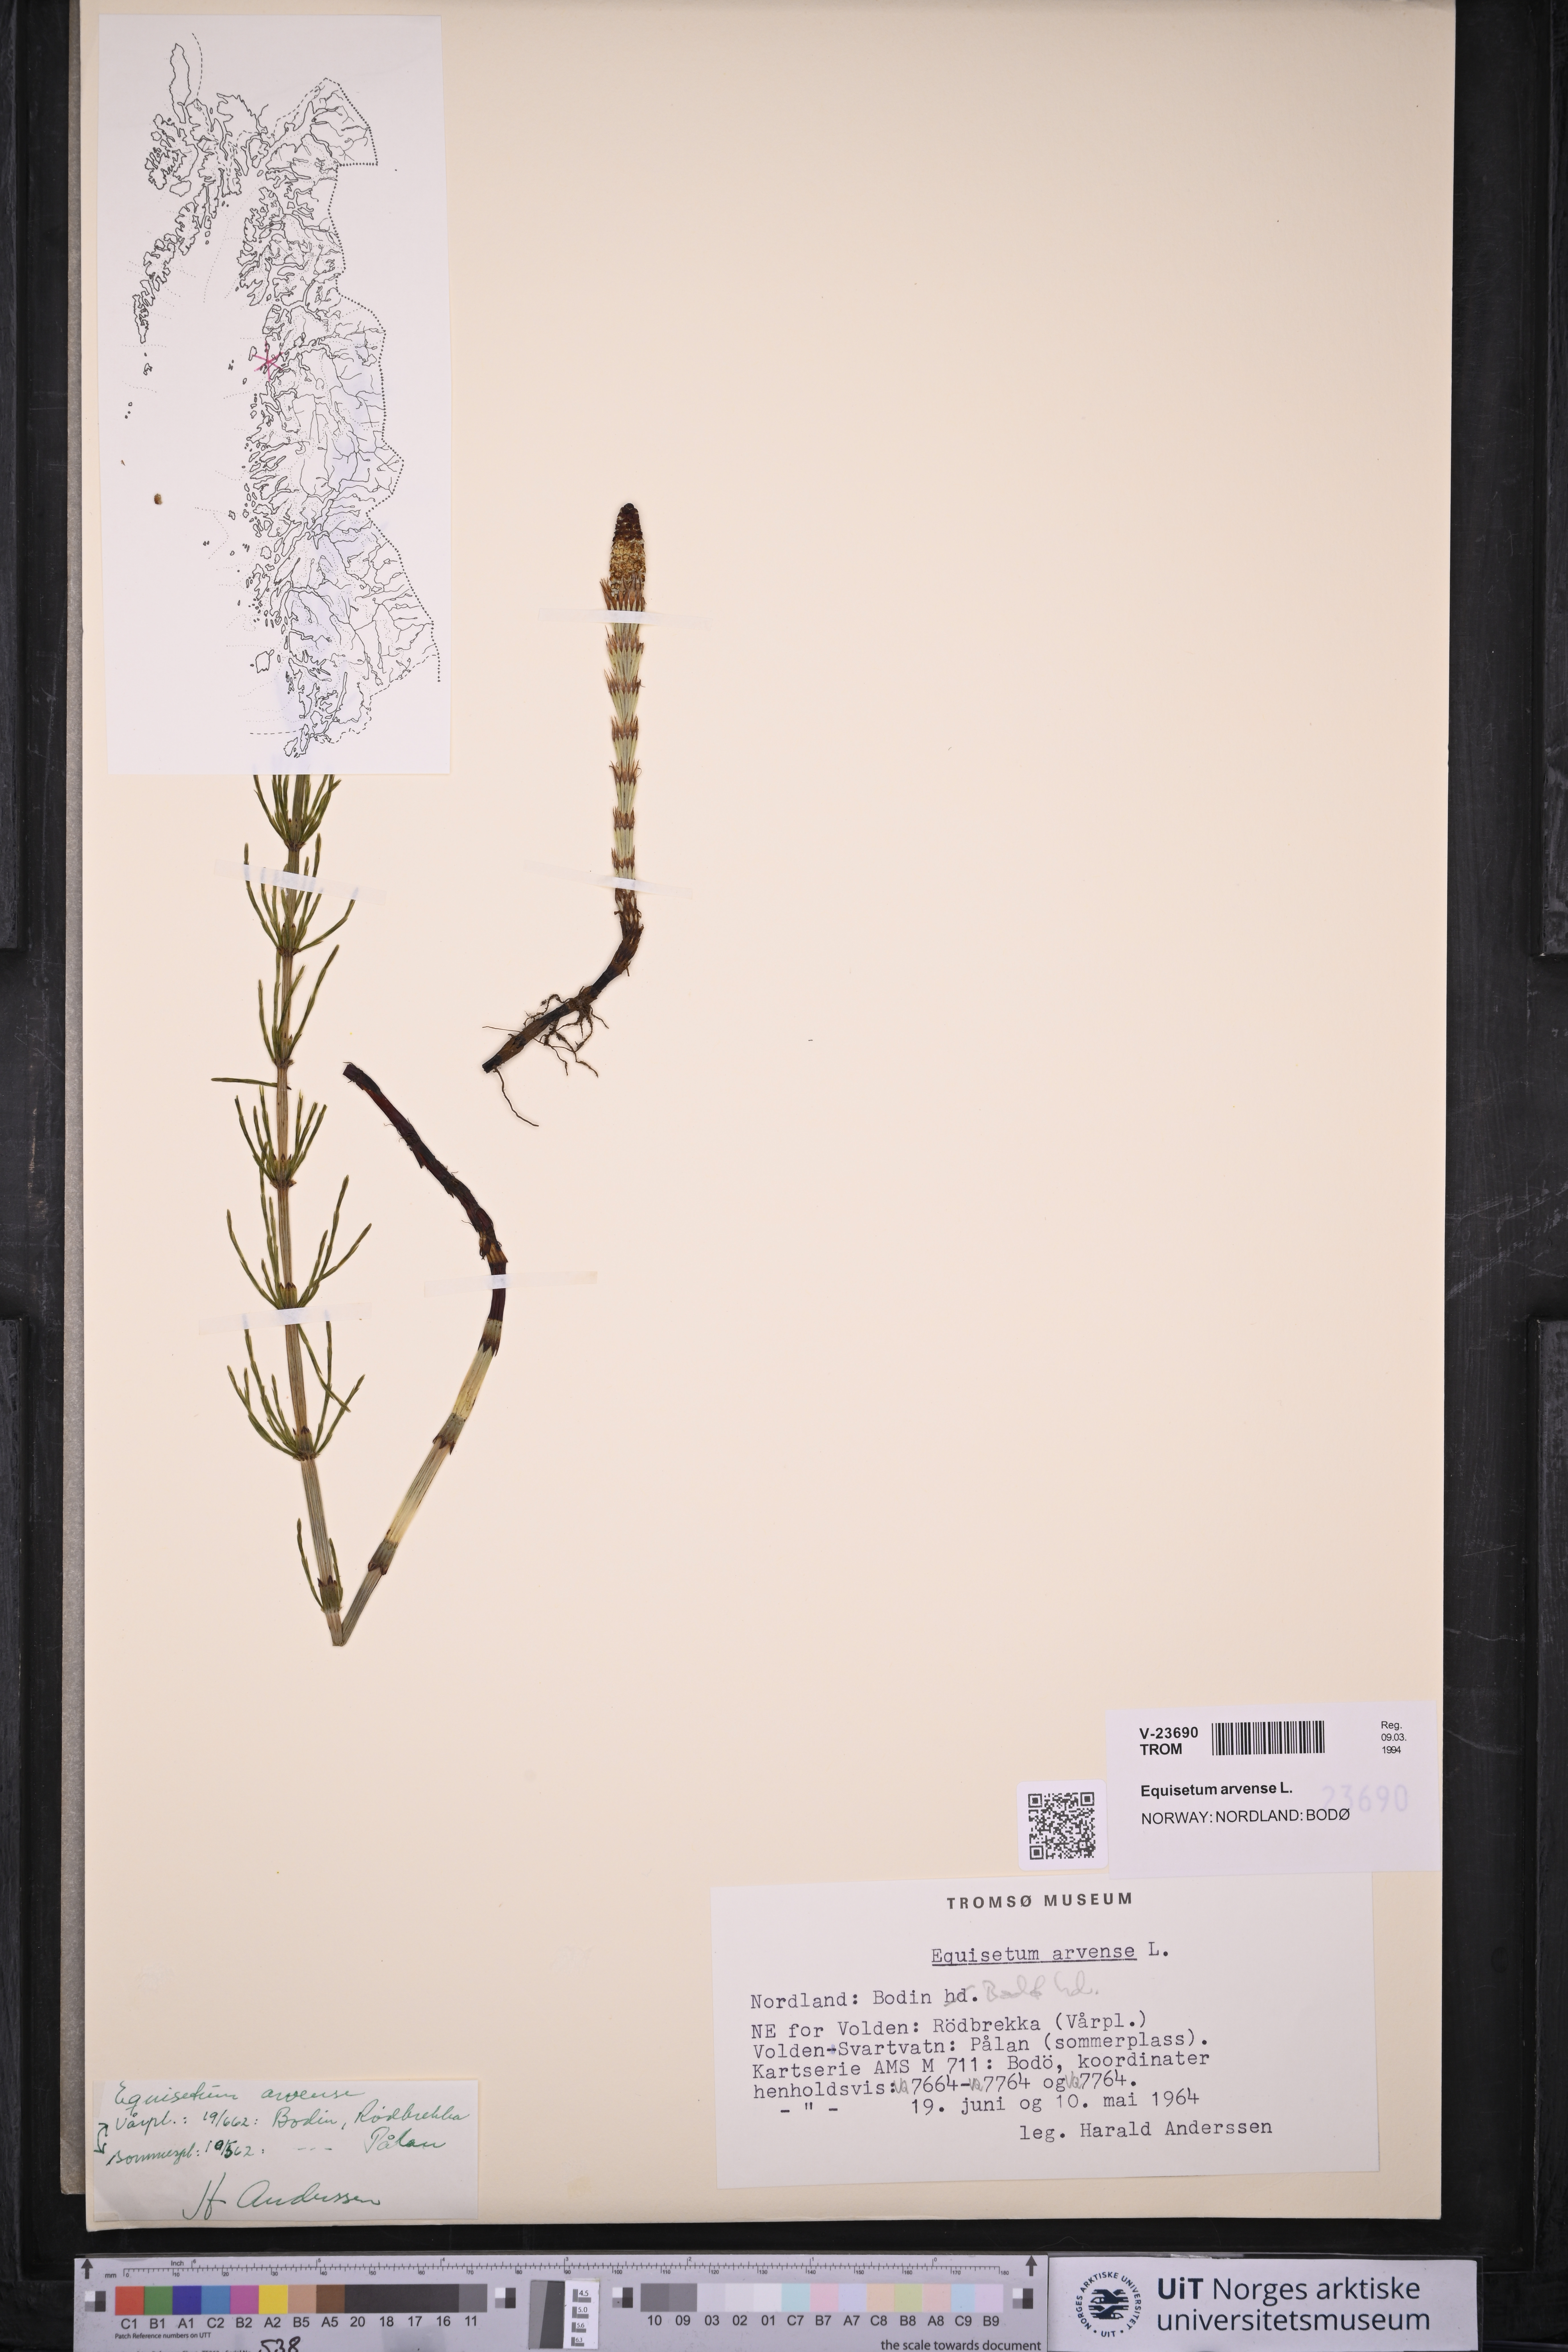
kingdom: Plantae
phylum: Tracheophyta
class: Polypodiopsida
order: Equisetales
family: Equisetaceae
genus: Equisetum
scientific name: Equisetum arvense
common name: Field horsetail
